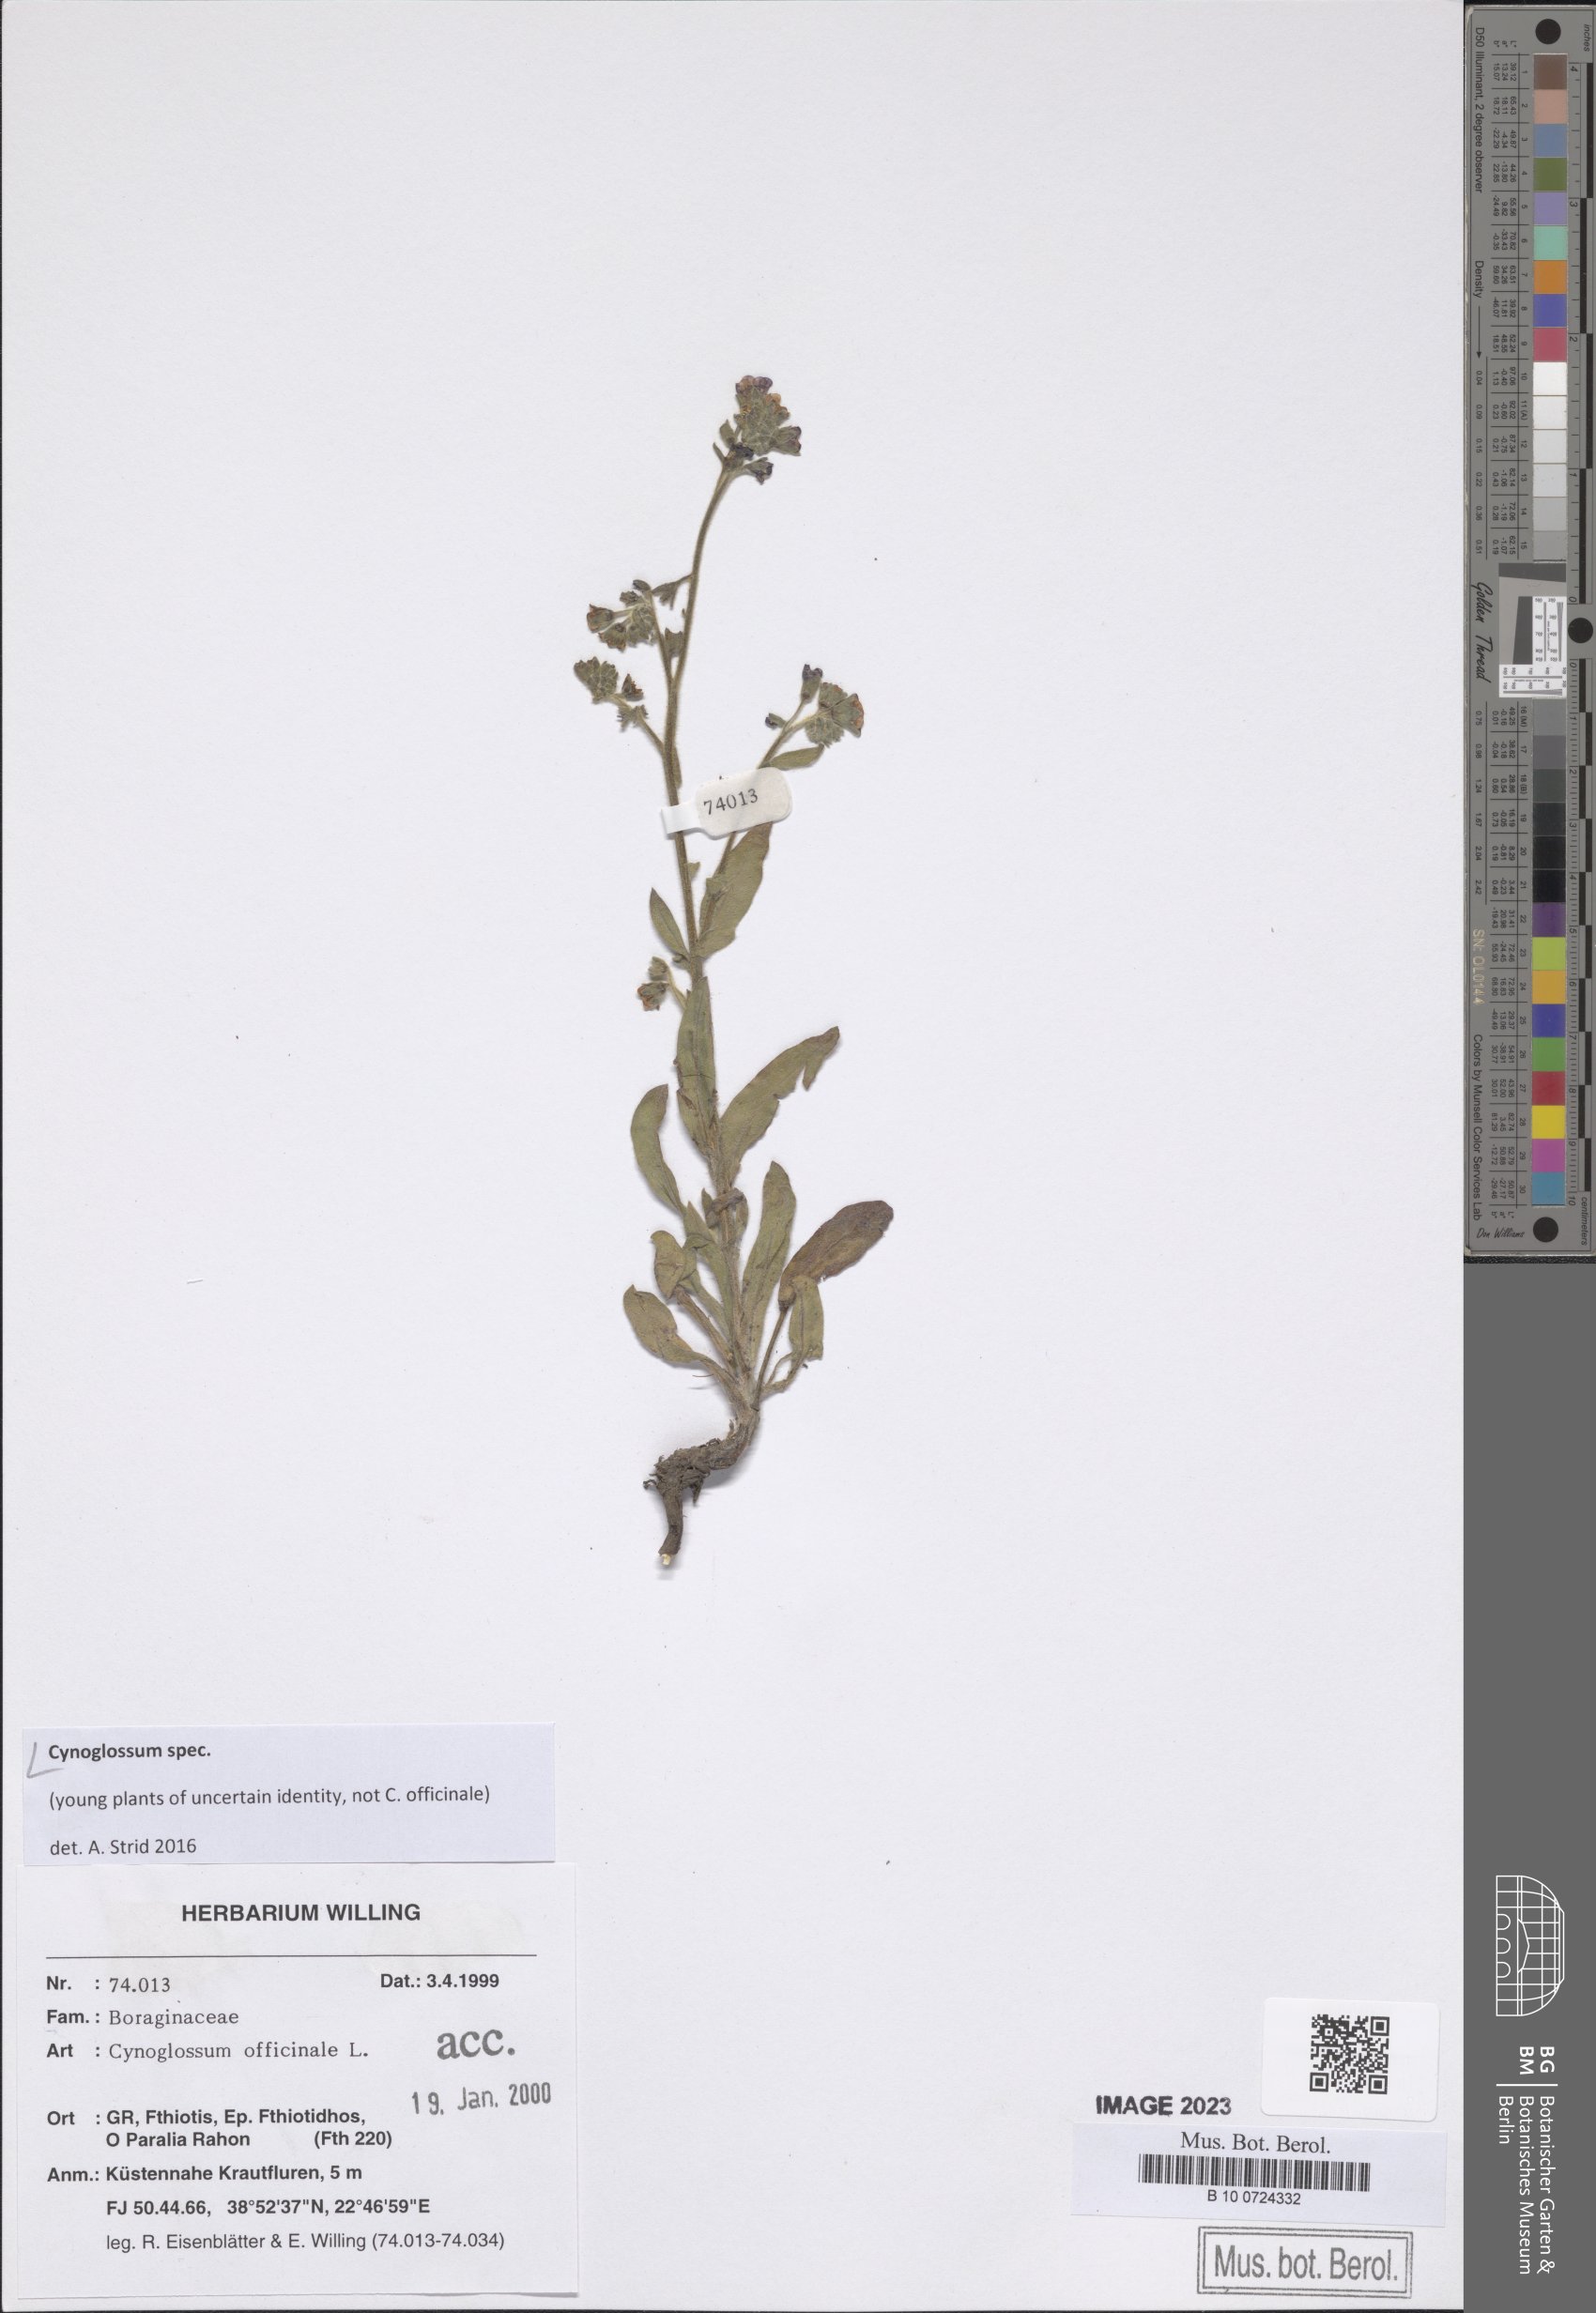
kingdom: Plantae
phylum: Tracheophyta
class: Magnoliopsida
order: Boraginales
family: Boraginaceae
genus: Cynoglossum
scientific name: Cynoglossum
